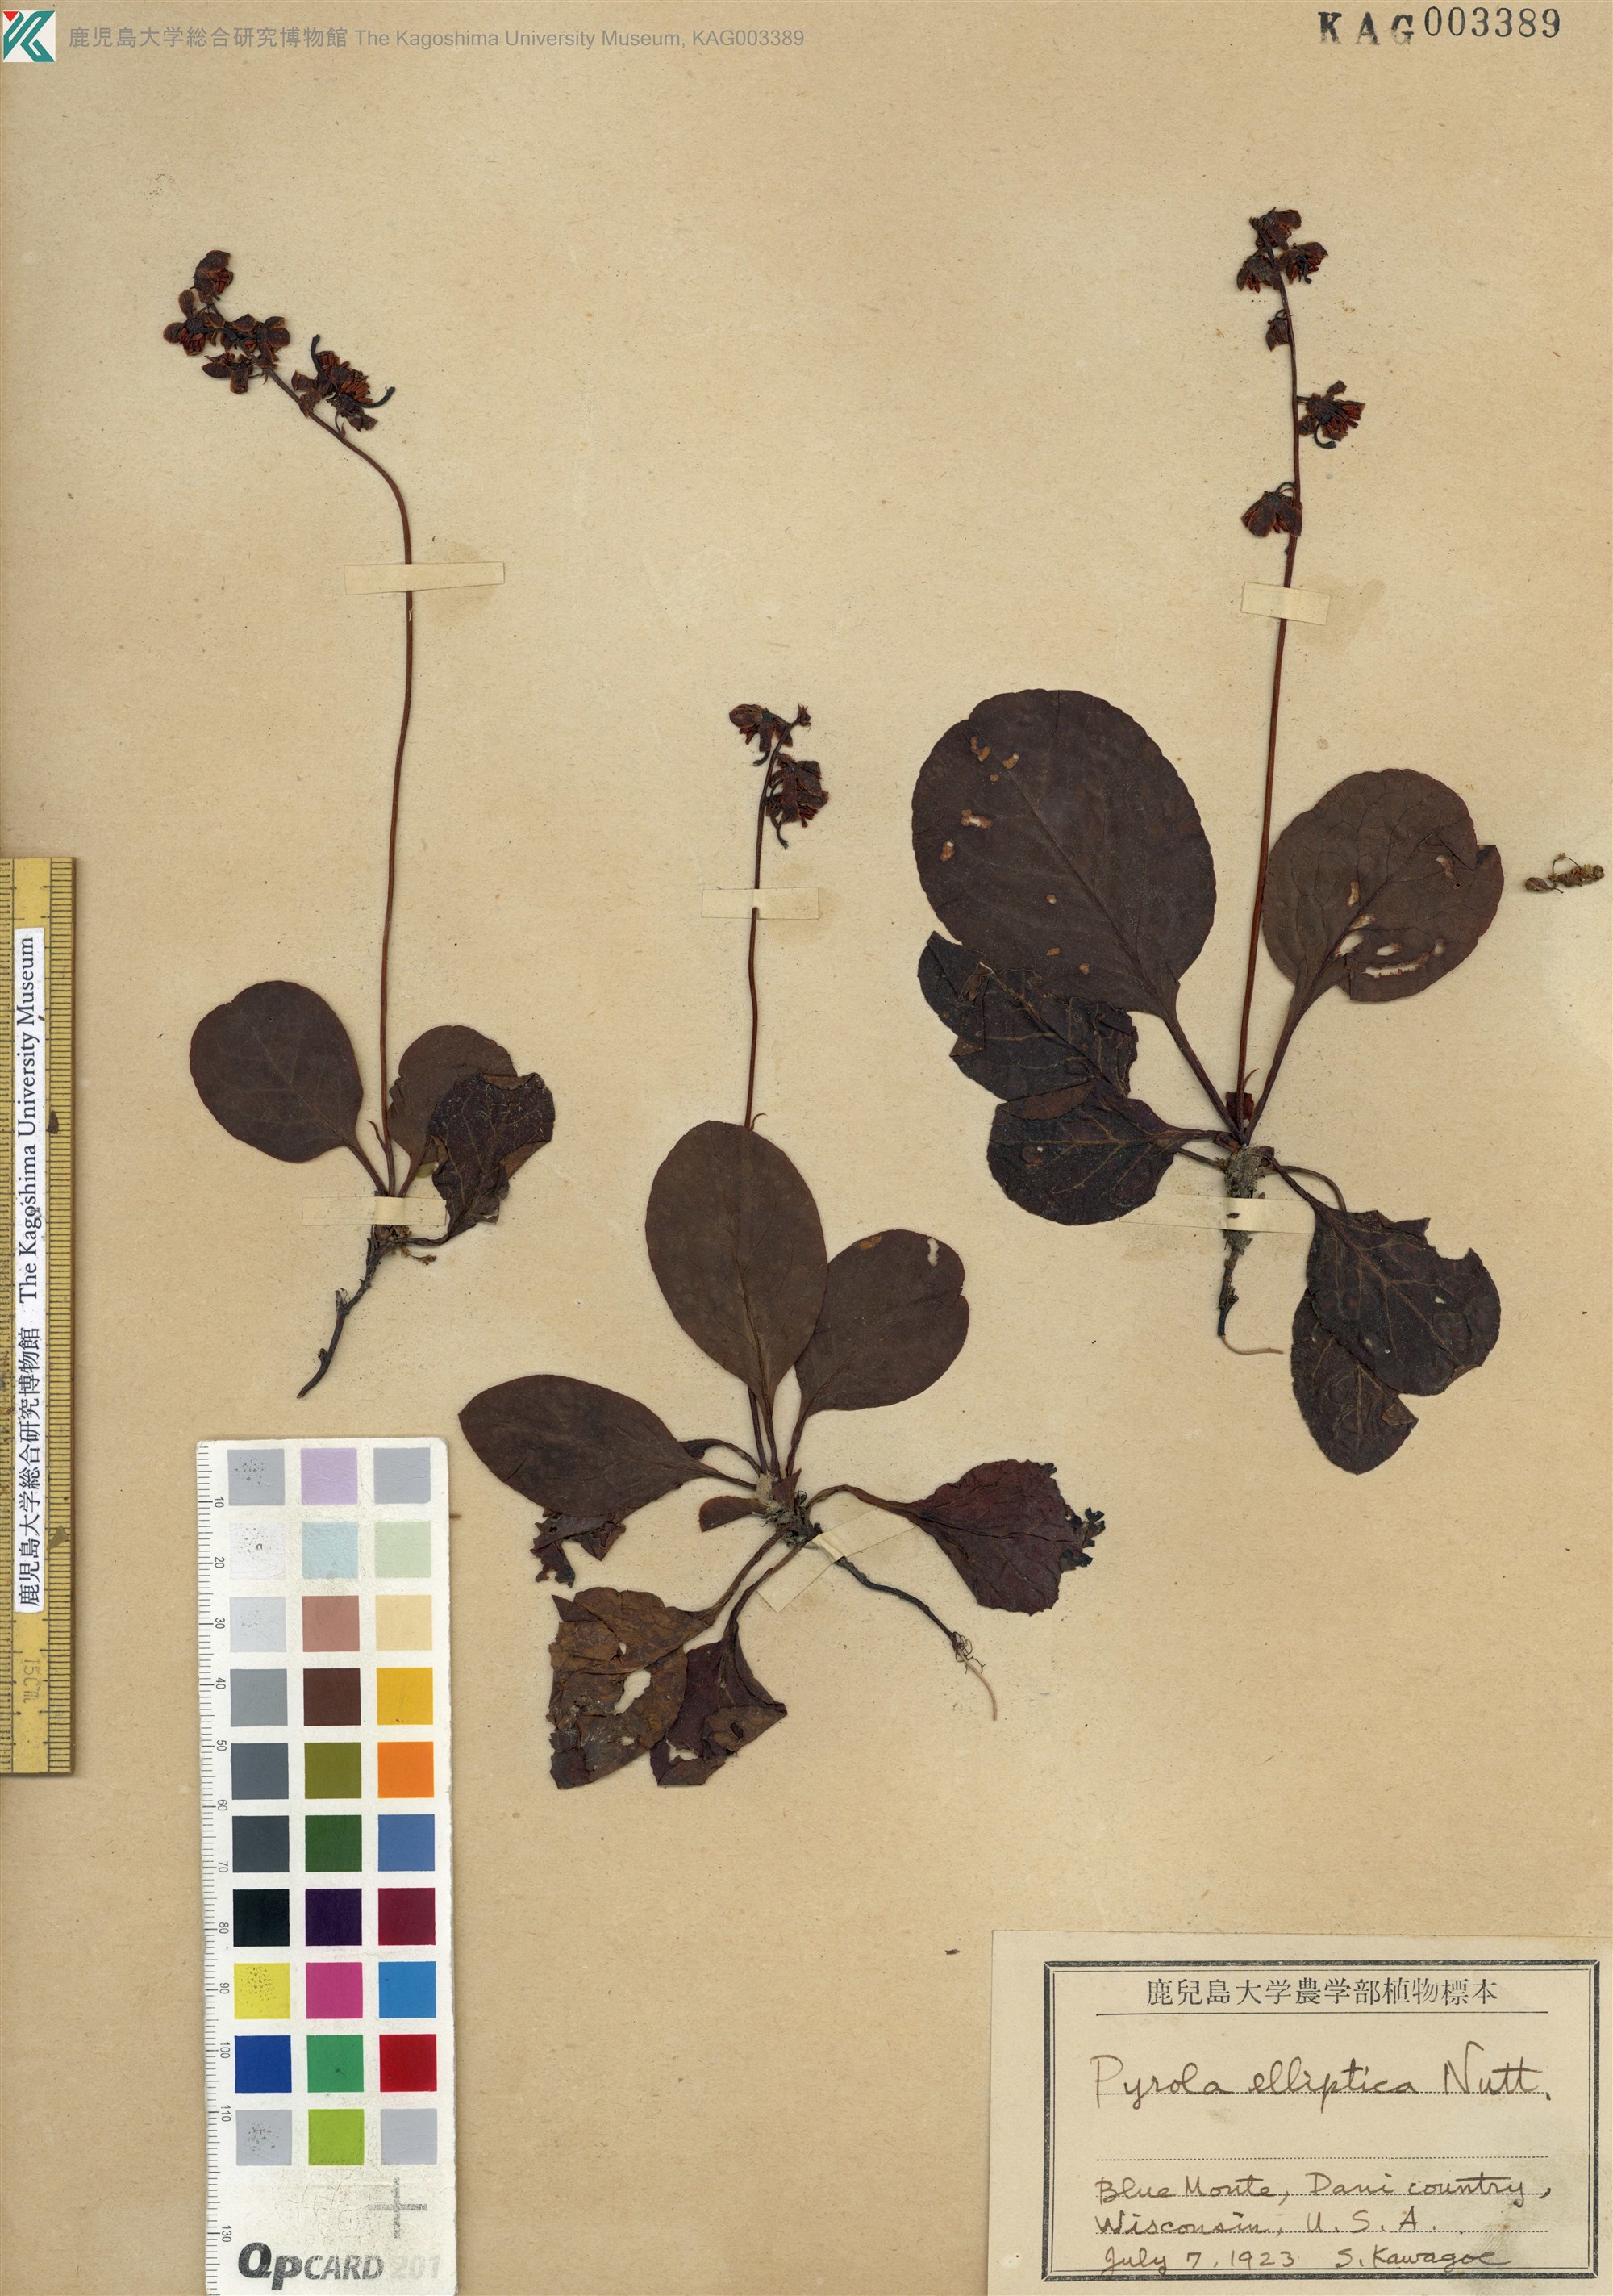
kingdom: Plantae
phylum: Tracheophyta
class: Magnoliopsida
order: Ericales
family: Ericaceae
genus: Pyrola
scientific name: Pyrola elliptica
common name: Shinleaf
